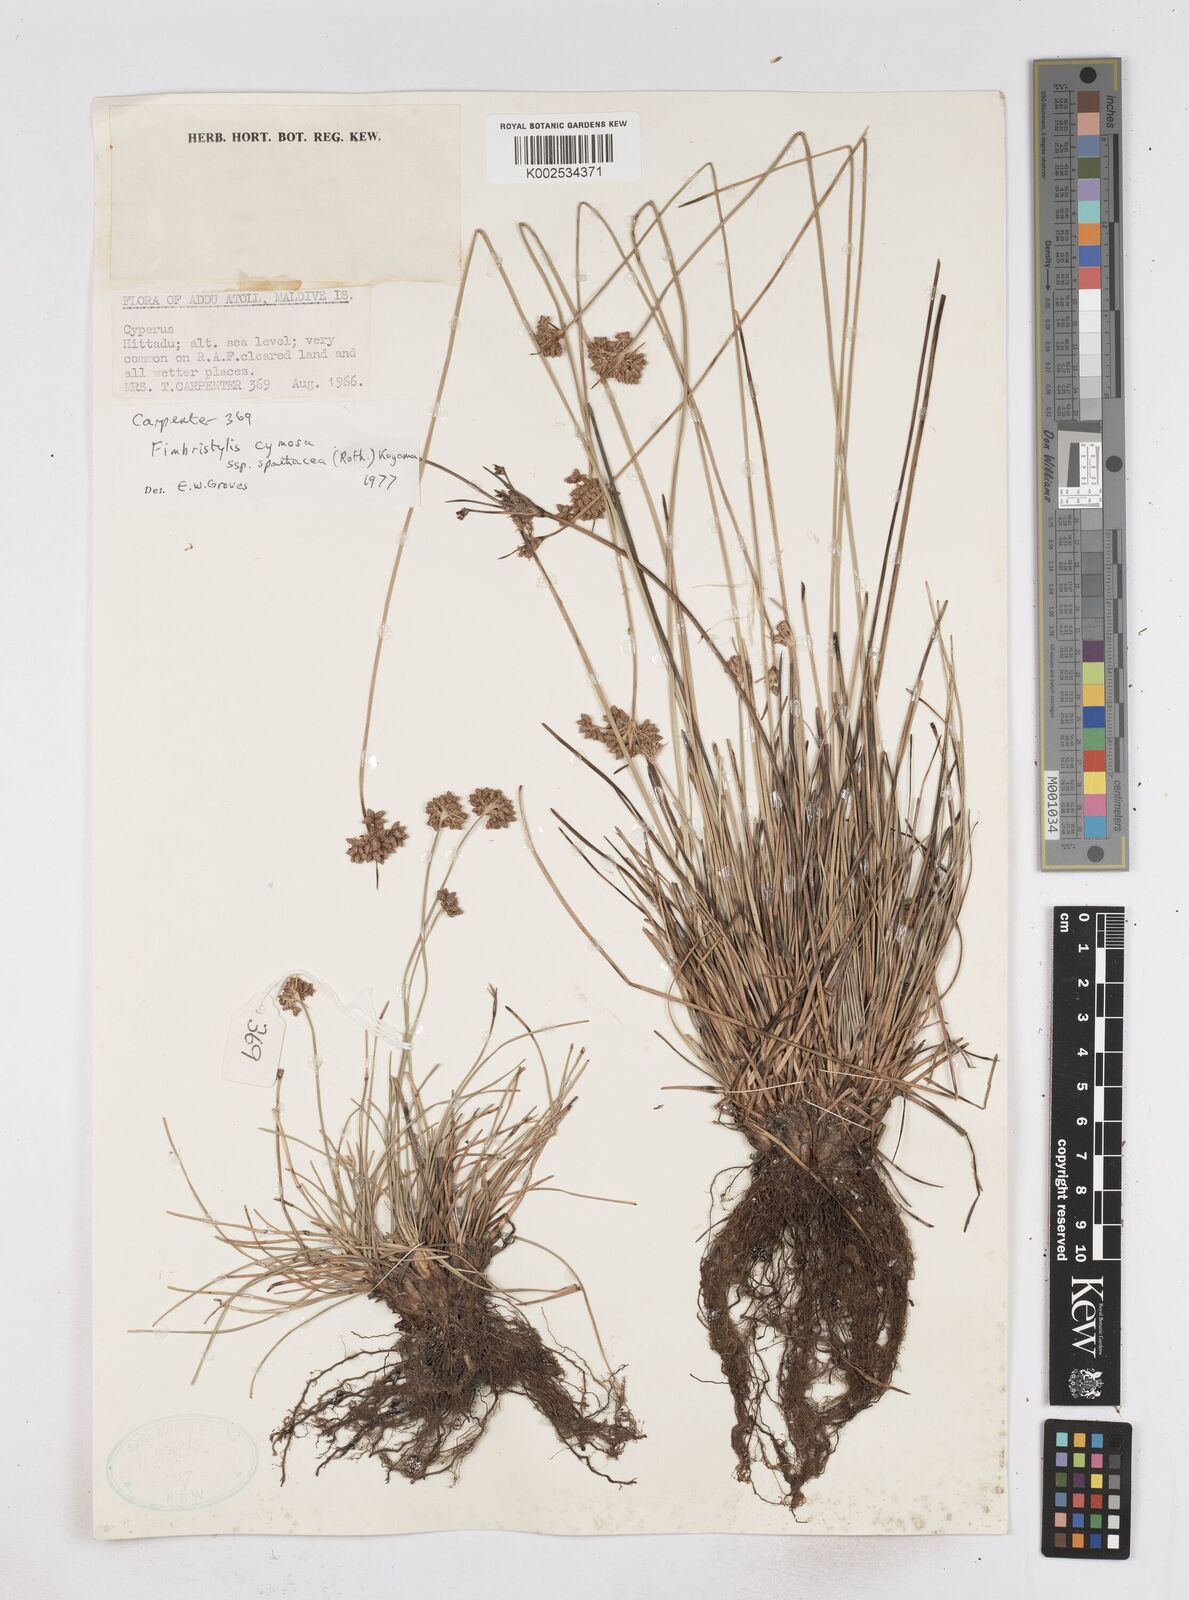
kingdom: Plantae
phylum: Tracheophyta
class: Liliopsida
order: Poales
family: Cyperaceae
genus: Fimbristylis
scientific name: Fimbristylis cymosa
